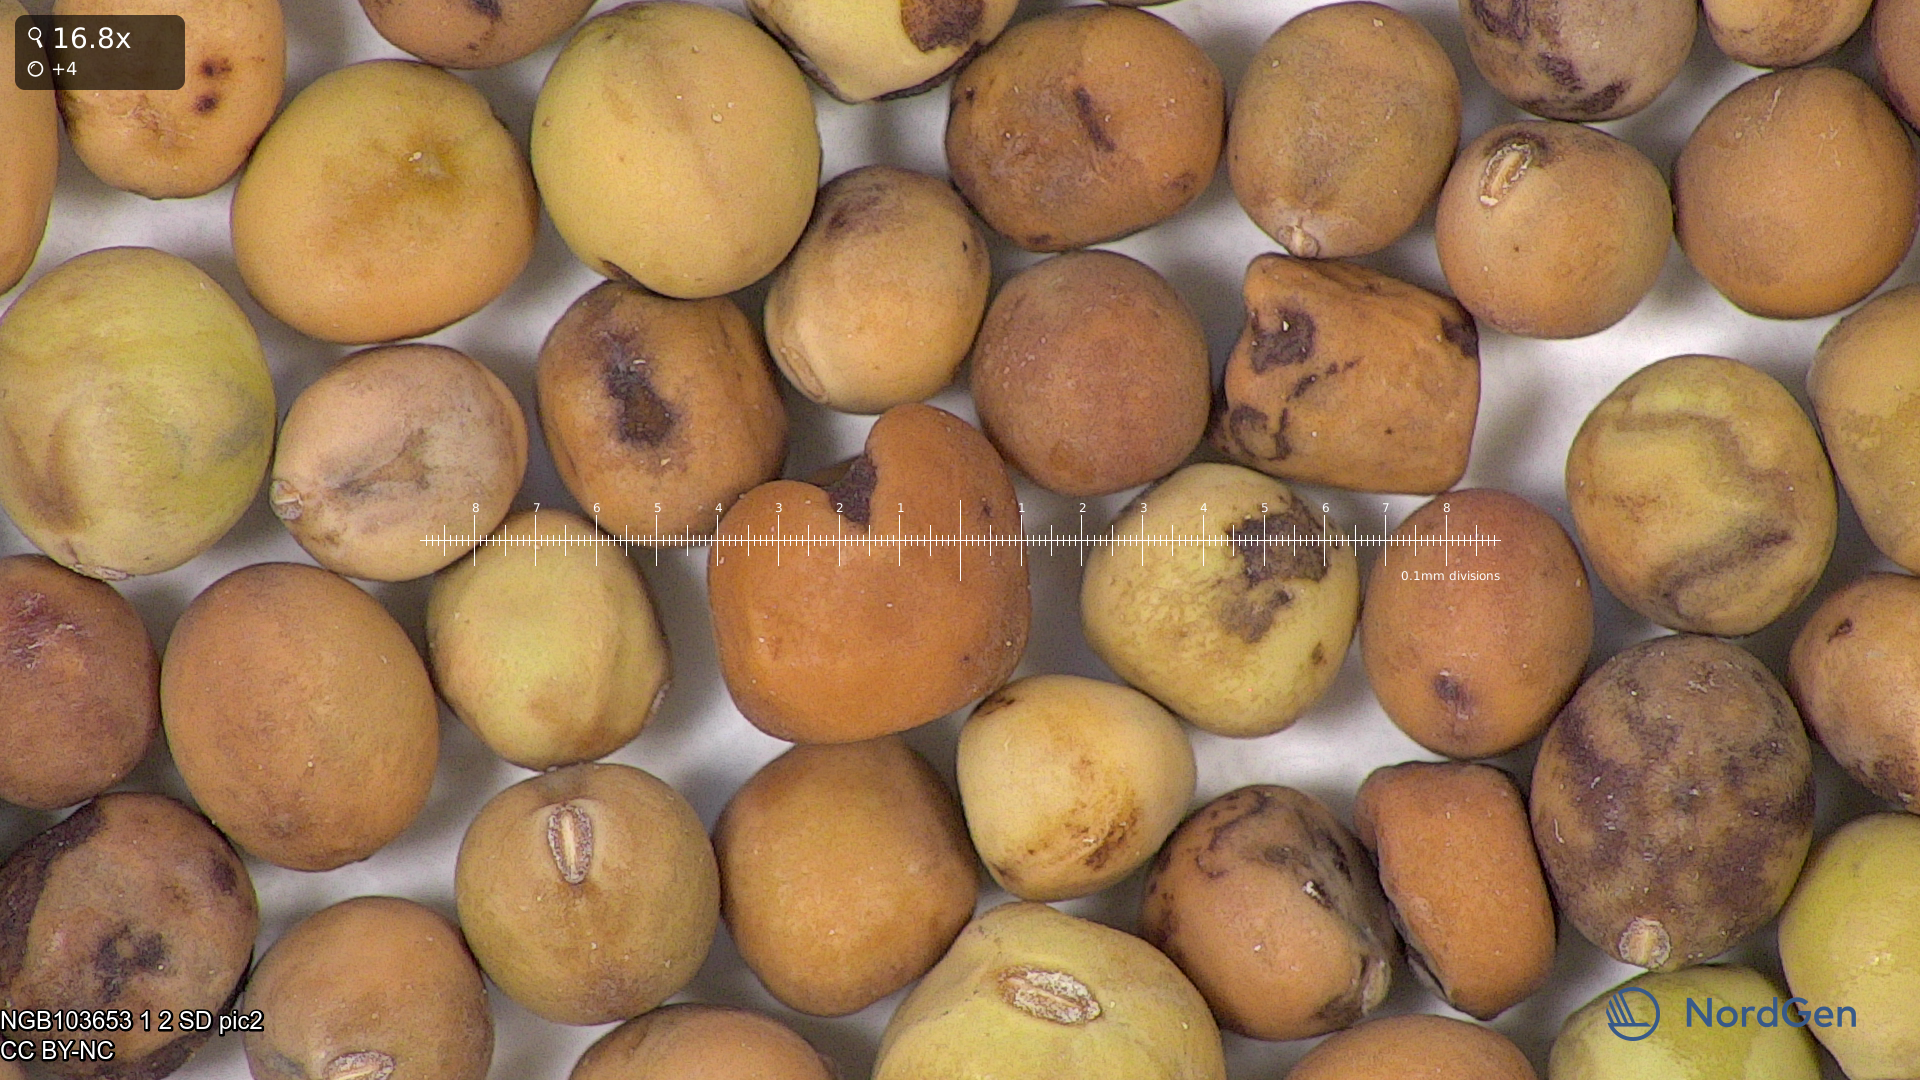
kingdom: Plantae
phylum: Tracheophyta
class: Magnoliopsida
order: Fabales
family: Fabaceae
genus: Lathyrus
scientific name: Lathyrus oleraceus
